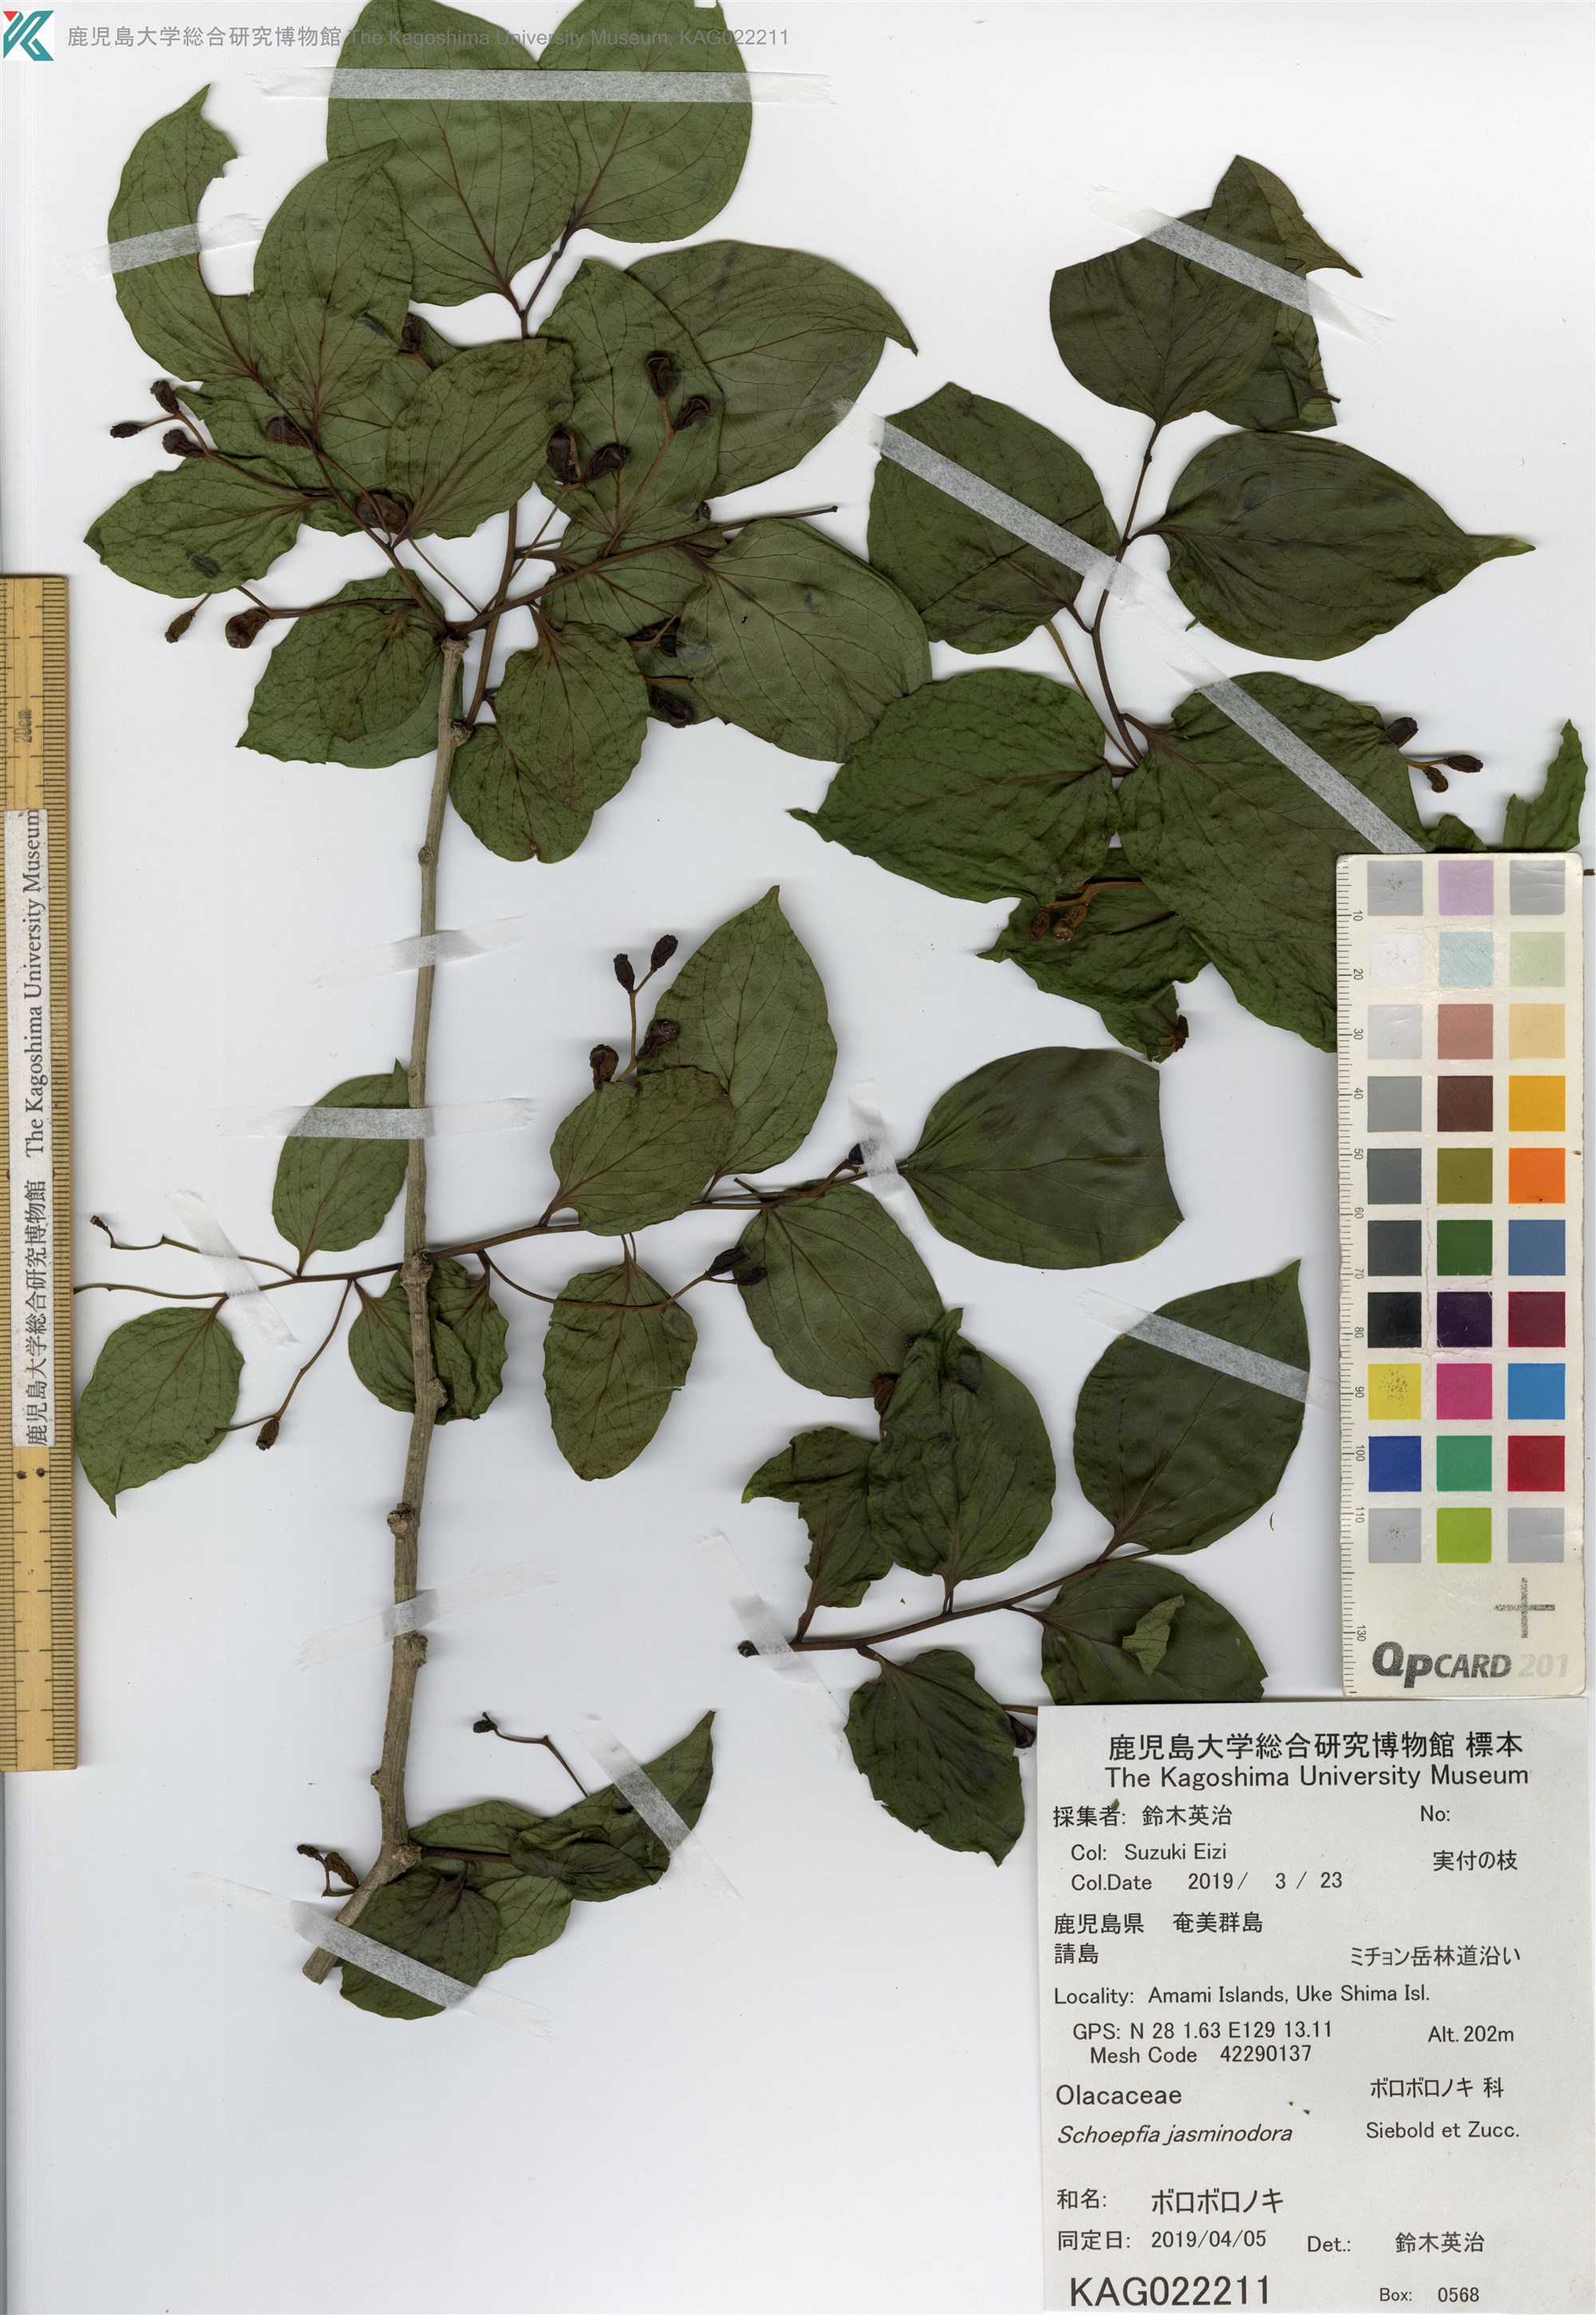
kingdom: Plantae
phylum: Tracheophyta
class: Magnoliopsida
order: Santalales
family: Schoepfiaceae
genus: Schoepfia
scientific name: Schoepfia jasminodora
